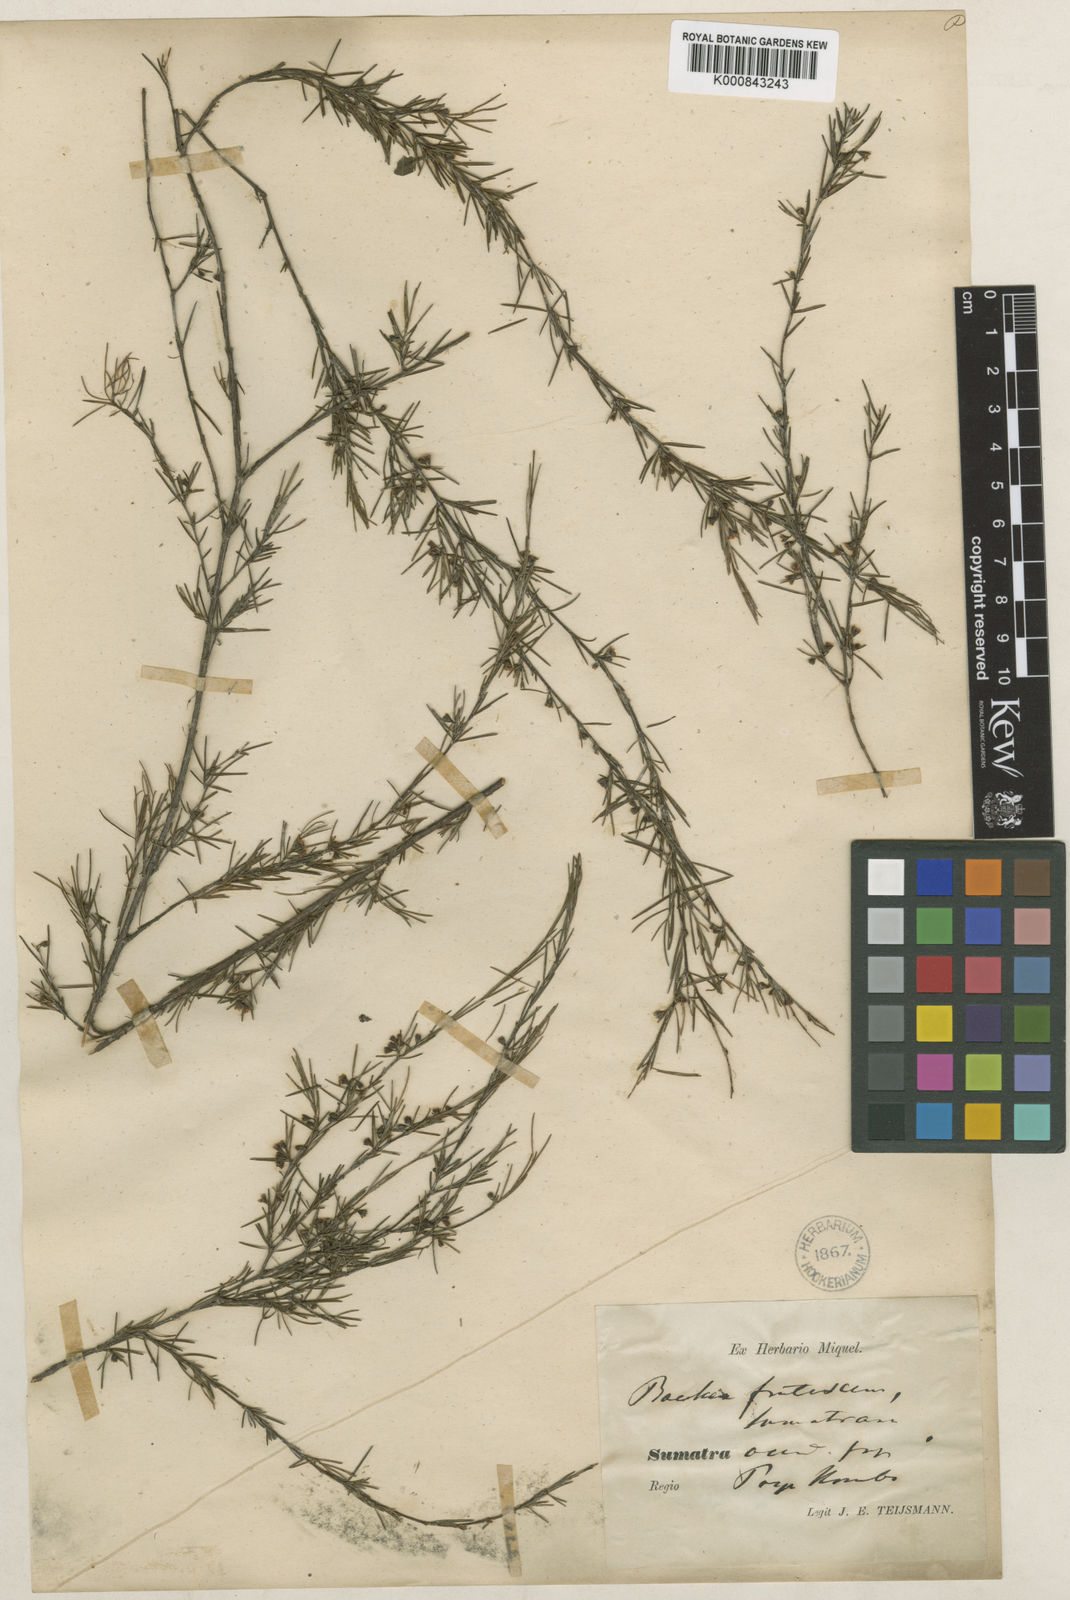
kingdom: Plantae
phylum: Tracheophyta
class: Magnoliopsida
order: Myrtales
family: Myrtaceae
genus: Baeckea
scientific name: Baeckea frutescens
